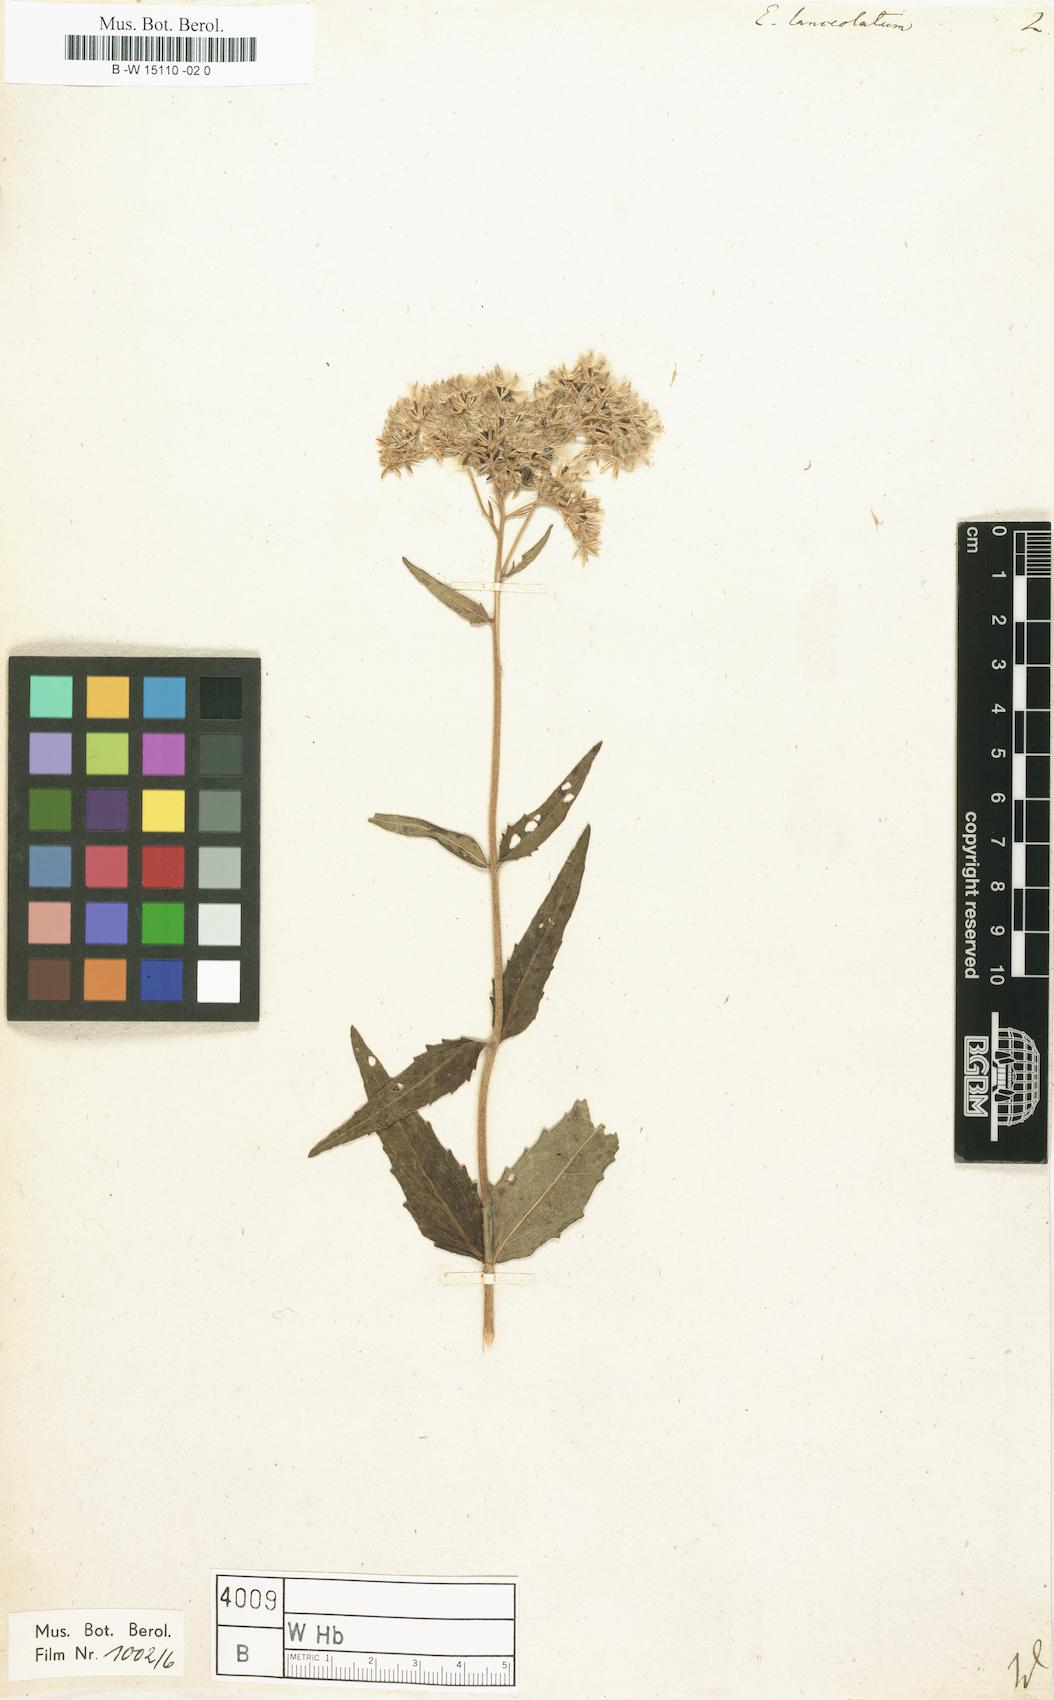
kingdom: Plantae
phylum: Tracheophyta
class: Magnoliopsida
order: Asterales
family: Asteraceae
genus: Eupatorium
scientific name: Eupatorium lanceolatum
